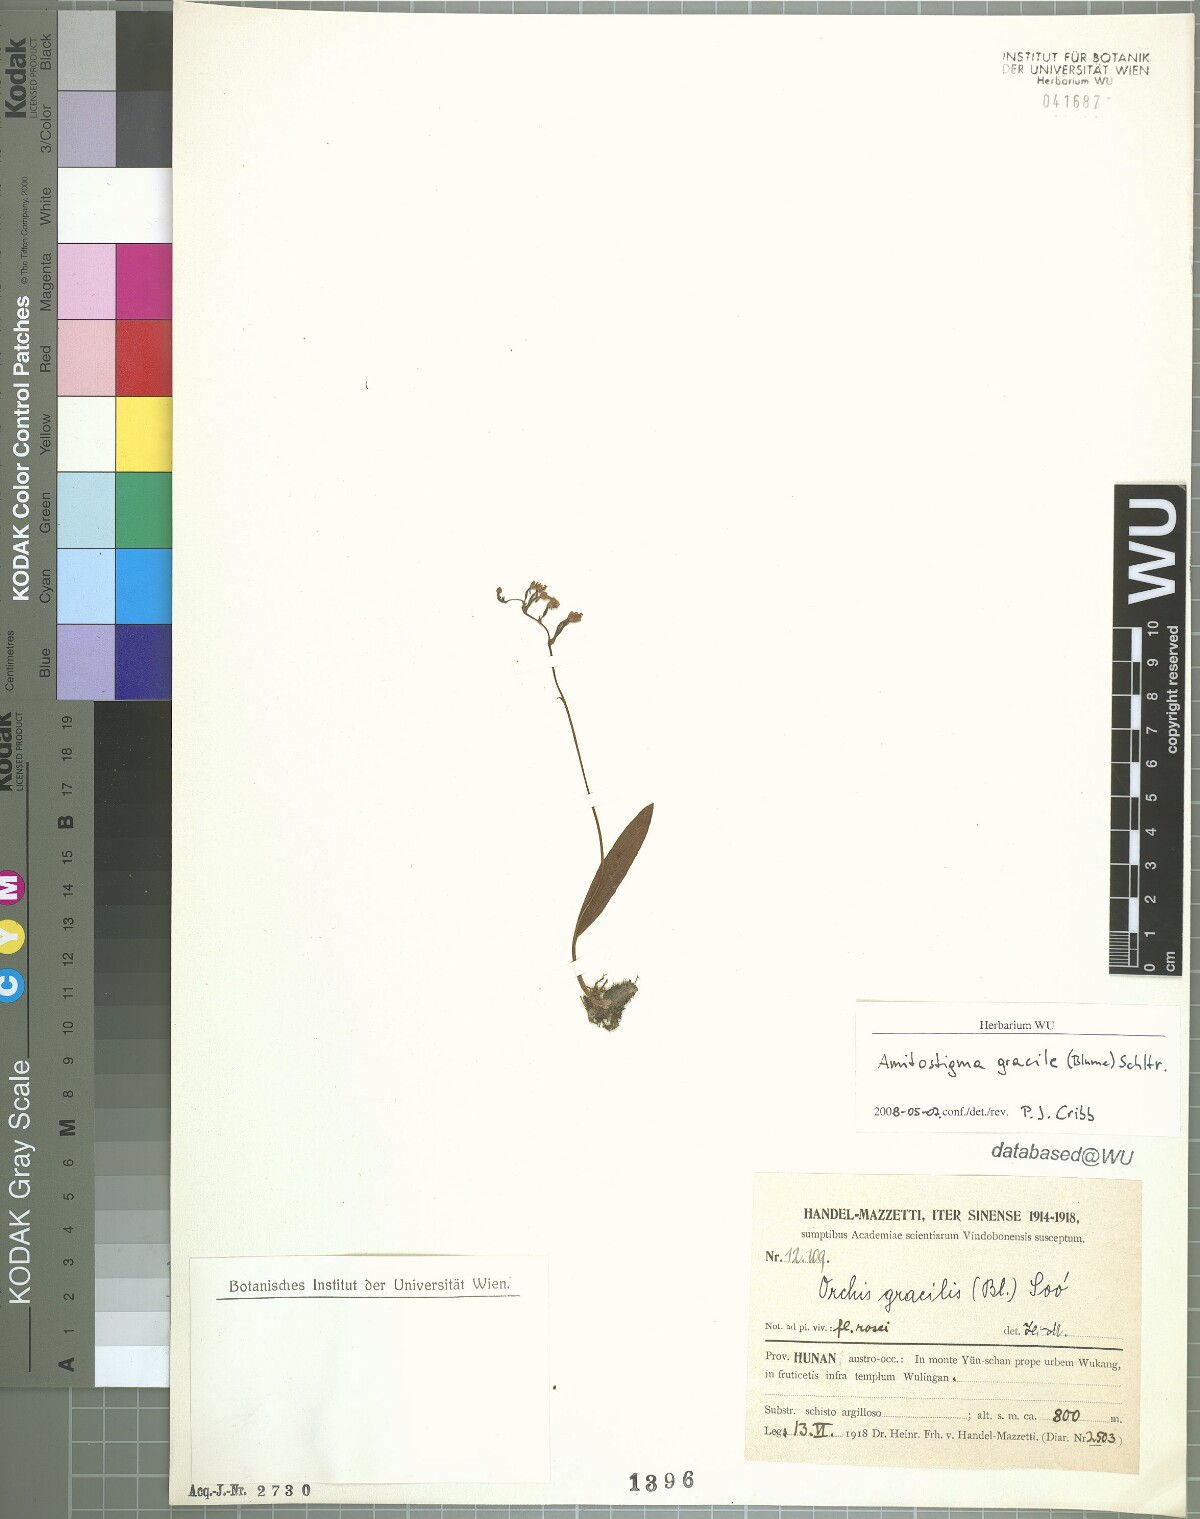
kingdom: Plantae
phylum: Tracheophyta
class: Liliopsida
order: Asparagales
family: Orchidaceae
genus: Hemipilia
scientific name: Hemipilia gracilis
